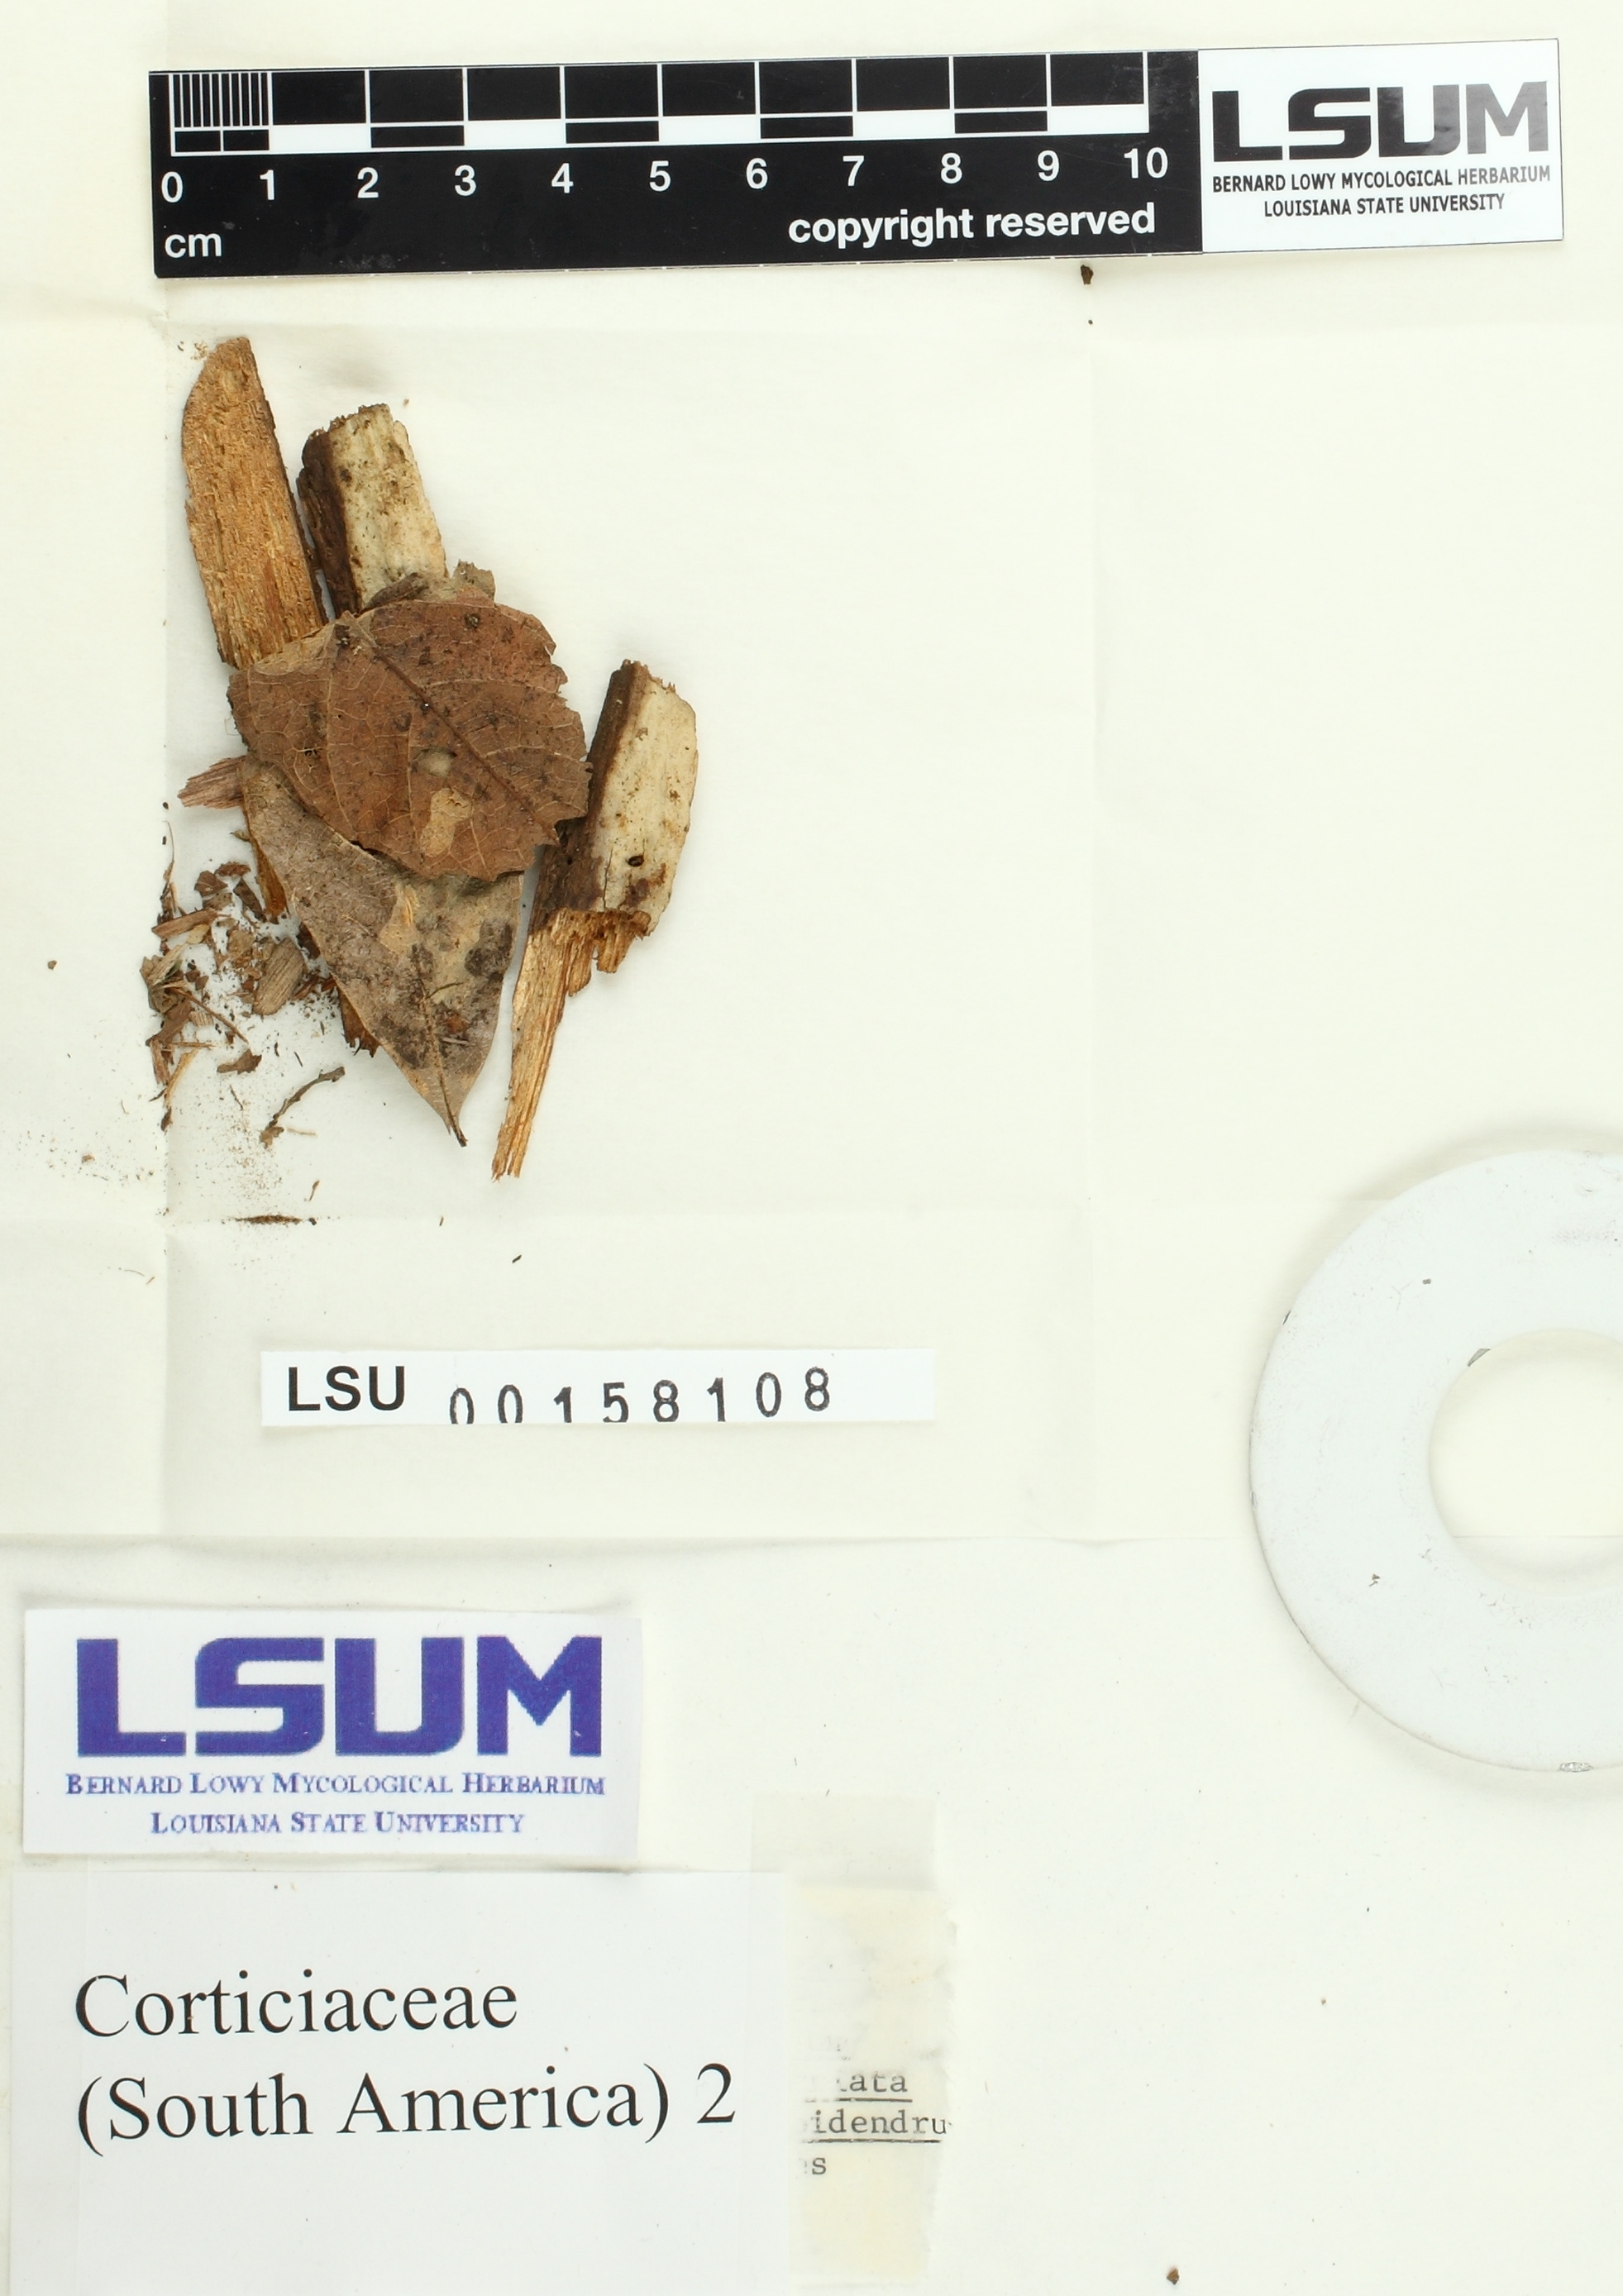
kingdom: Fungi
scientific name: Fungi
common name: Fungi
